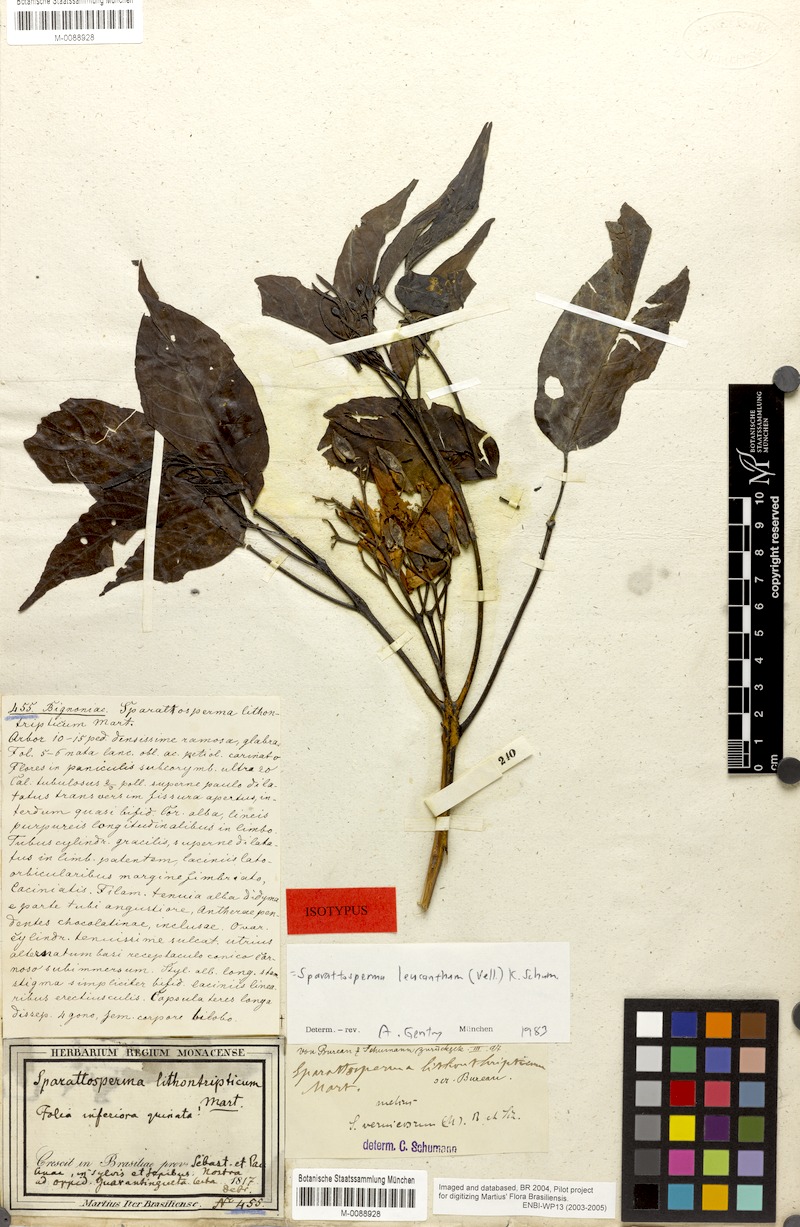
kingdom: Plantae
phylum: Tracheophyta
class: Magnoliopsida
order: Lamiales
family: Bignoniaceae
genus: Sparattosperma
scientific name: Sparattosperma leucanthum
